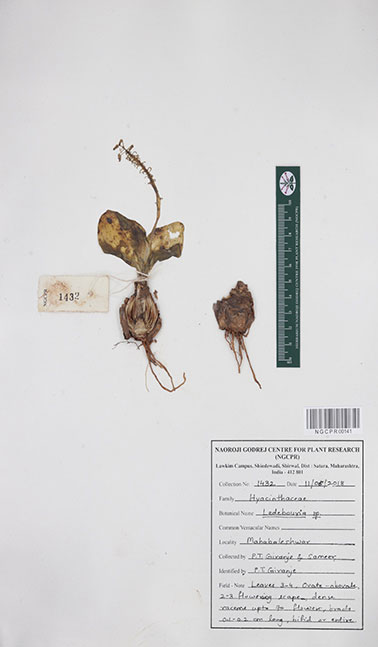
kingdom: Plantae
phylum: Tracheophyta
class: Liliopsida
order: Asparagales
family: Asparagaceae
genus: Ledebouria
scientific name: Ledebouria
